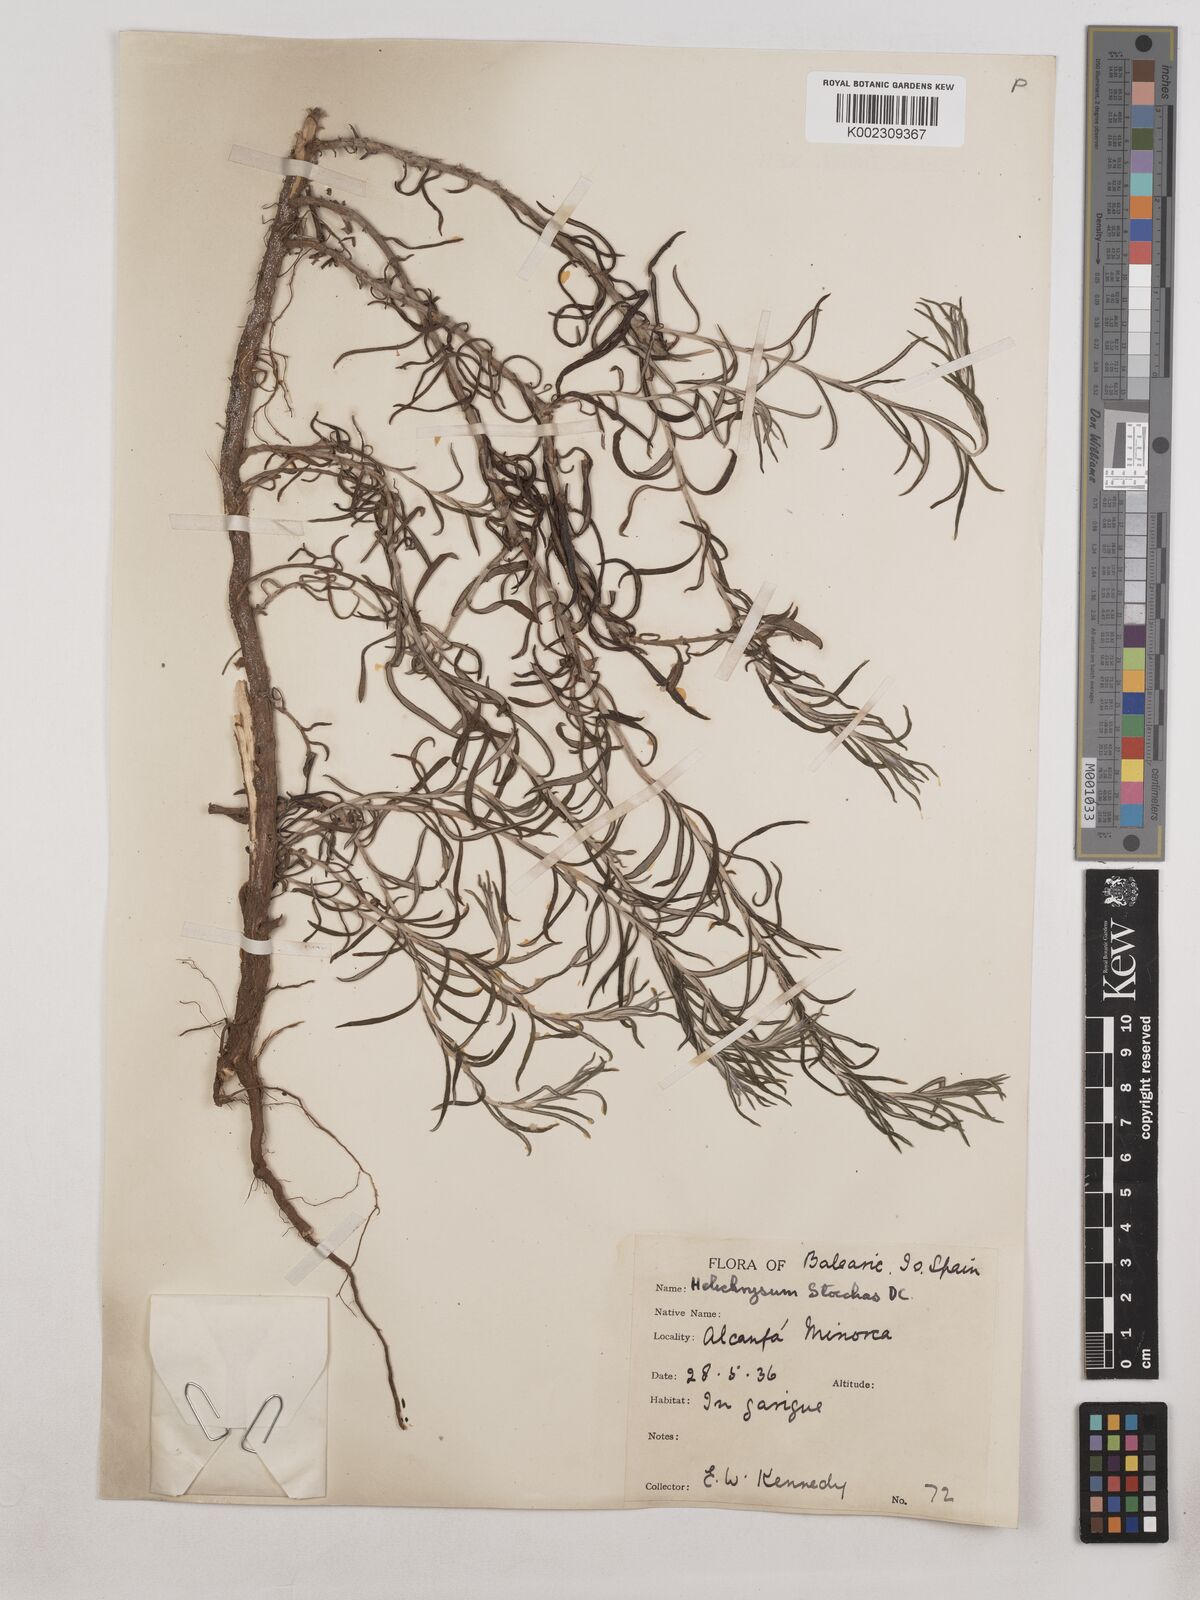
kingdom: Plantae
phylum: Tracheophyta
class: Magnoliopsida
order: Asterales
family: Asteraceae
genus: Helichrysum
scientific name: Helichrysum
